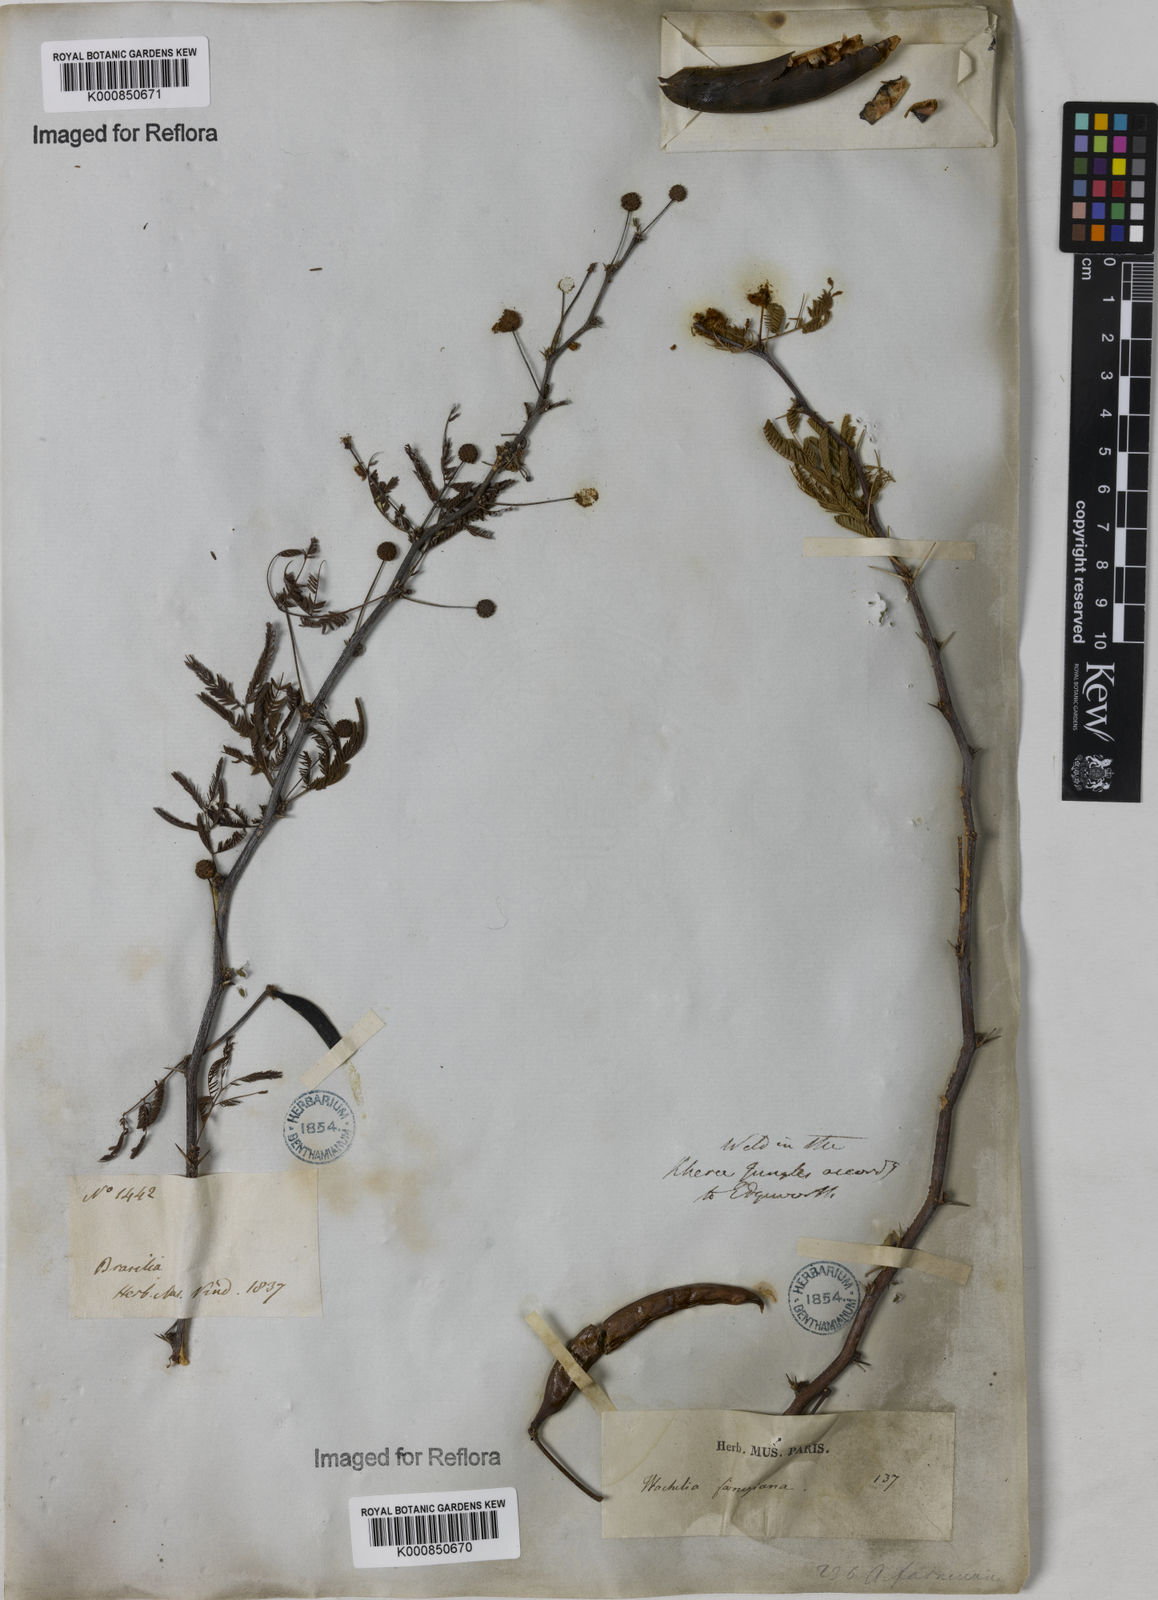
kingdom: Plantae
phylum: Tracheophyta
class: Magnoliopsida
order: Fabales
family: Fabaceae
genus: Vachellia
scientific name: Vachellia farnesiana
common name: Sweet acacia
